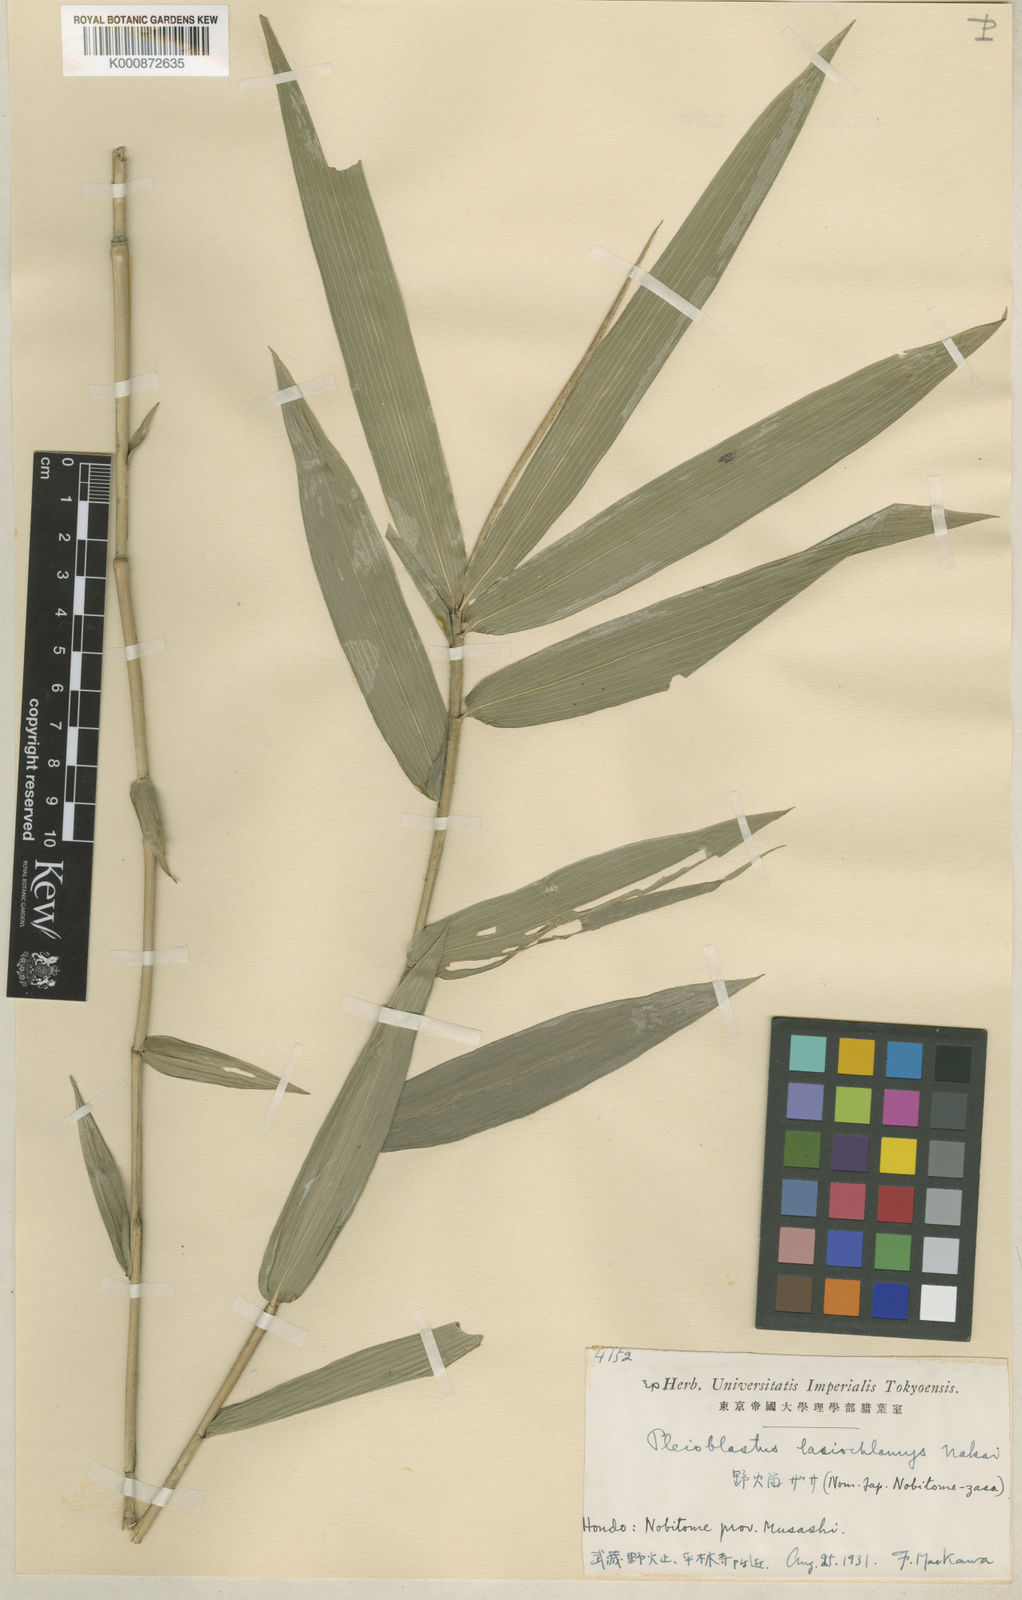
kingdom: Plantae
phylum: Tracheophyta
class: Liliopsida
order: Poales
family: Poaceae
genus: Pseudosasa
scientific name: Pseudosasa humilis
